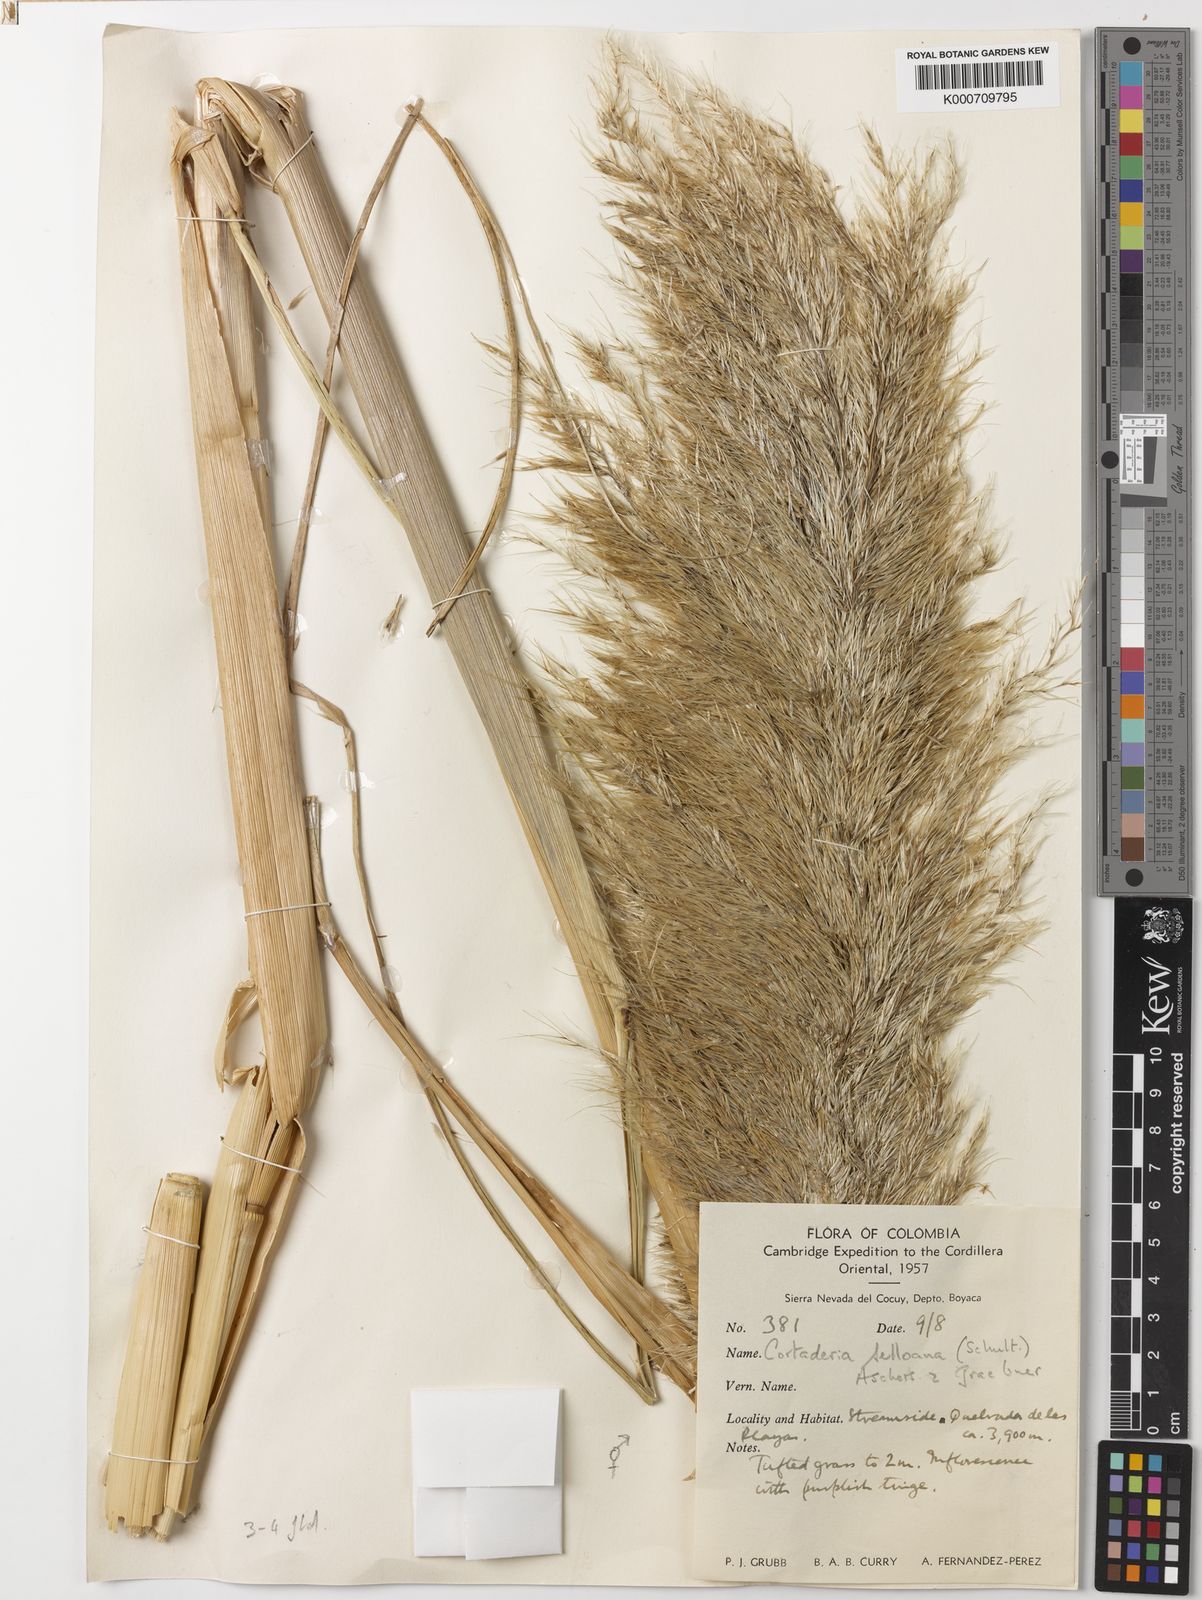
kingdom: Plantae
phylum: Tracheophyta
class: Liliopsida
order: Poales
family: Poaceae
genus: Cortaderia
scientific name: Cortaderia selloana
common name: Uruguayan pampas grass
